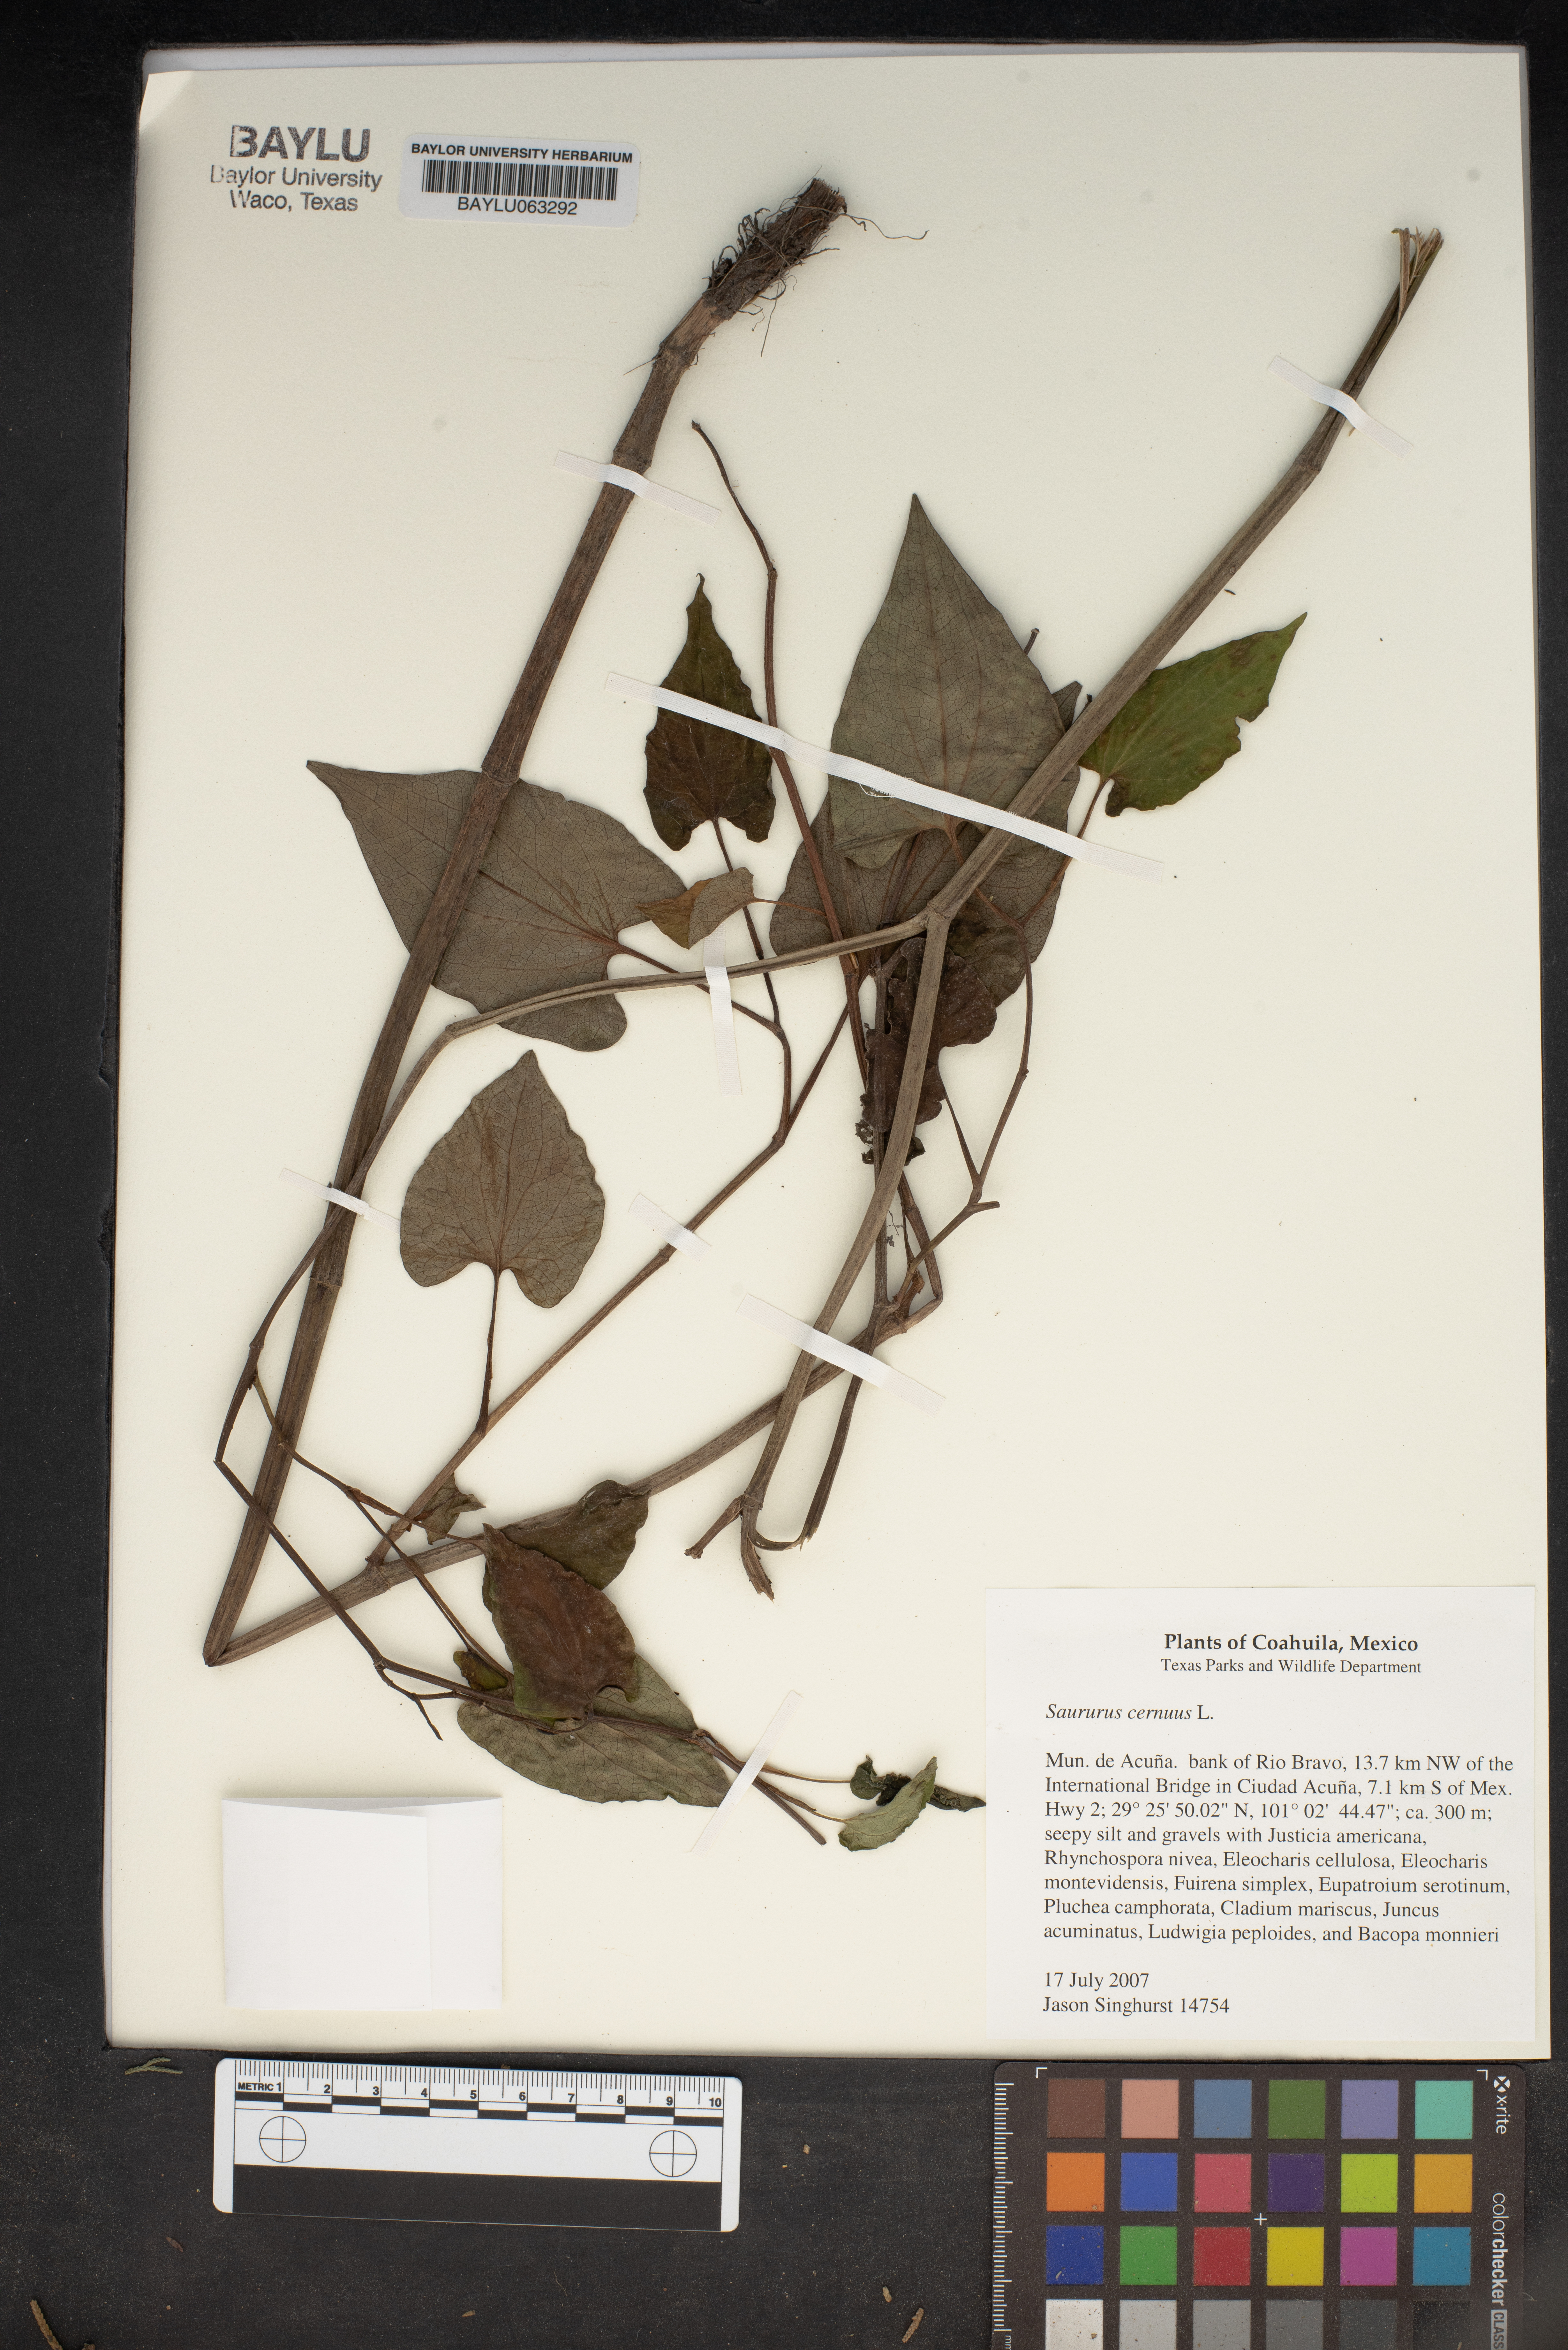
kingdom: Plantae
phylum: Tracheophyta
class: Magnoliopsida
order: Piperales
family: Saururaceae
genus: Saururus
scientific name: Saururus cernuus
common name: Lizard's-tail
